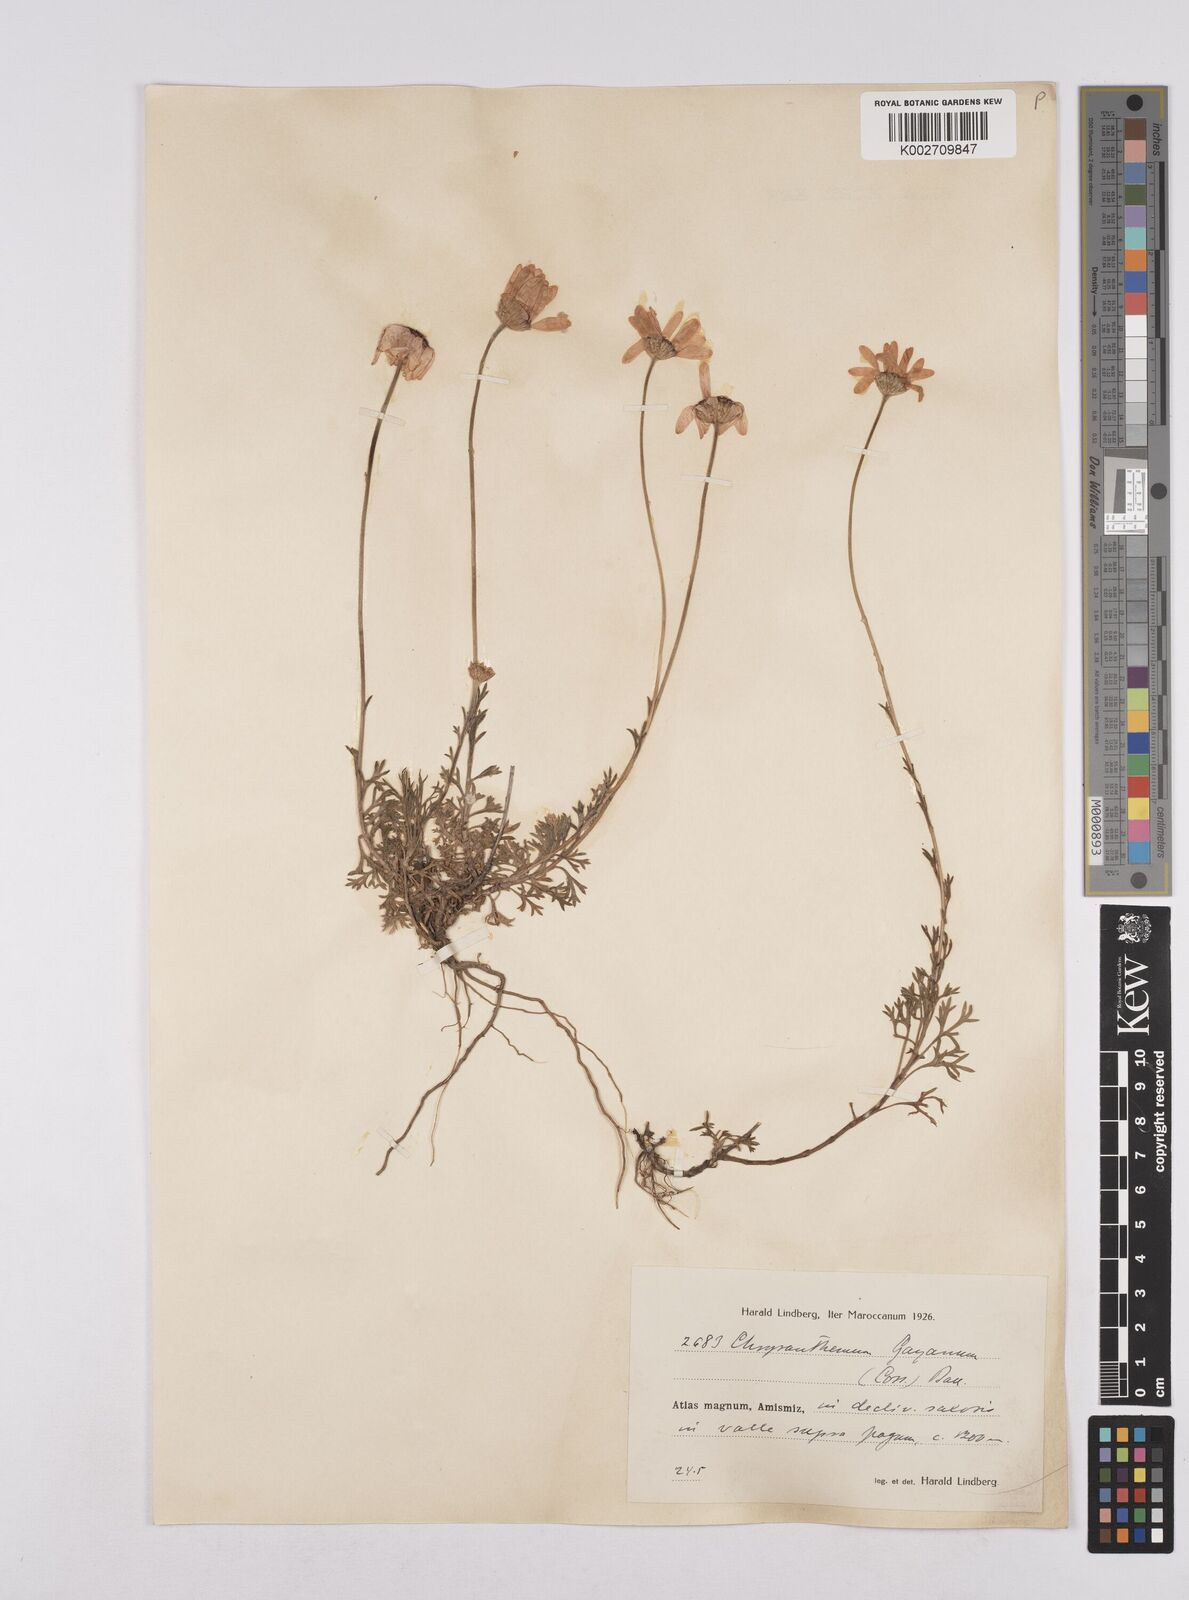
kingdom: Plantae
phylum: Tracheophyta
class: Magnoliopsida
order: Asterales
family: Asteraceae
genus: Rhodanthemum
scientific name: Rhodanthemum gayanum
